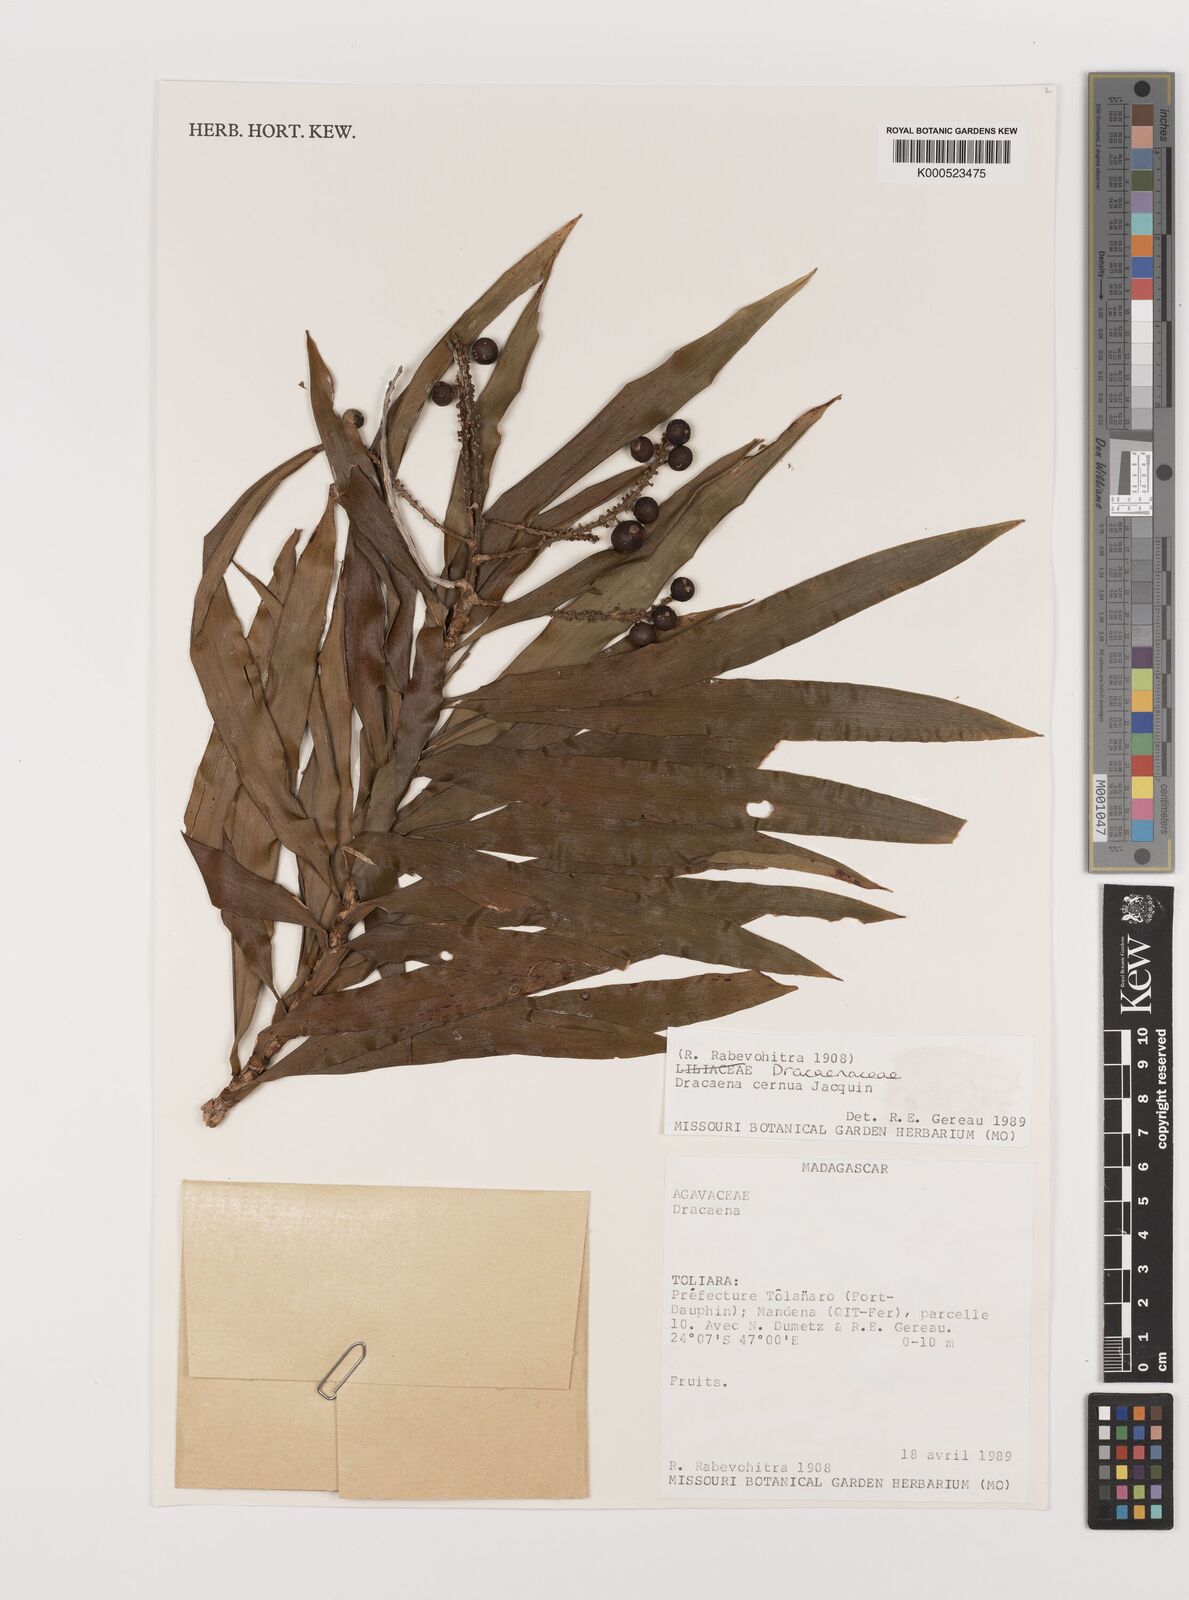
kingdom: Plantae
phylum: Tracheophyta
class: Liliopsida
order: Asparagales
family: Asparagaceae
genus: Dracaena
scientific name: Dracaena reflexa
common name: Song-of-india
